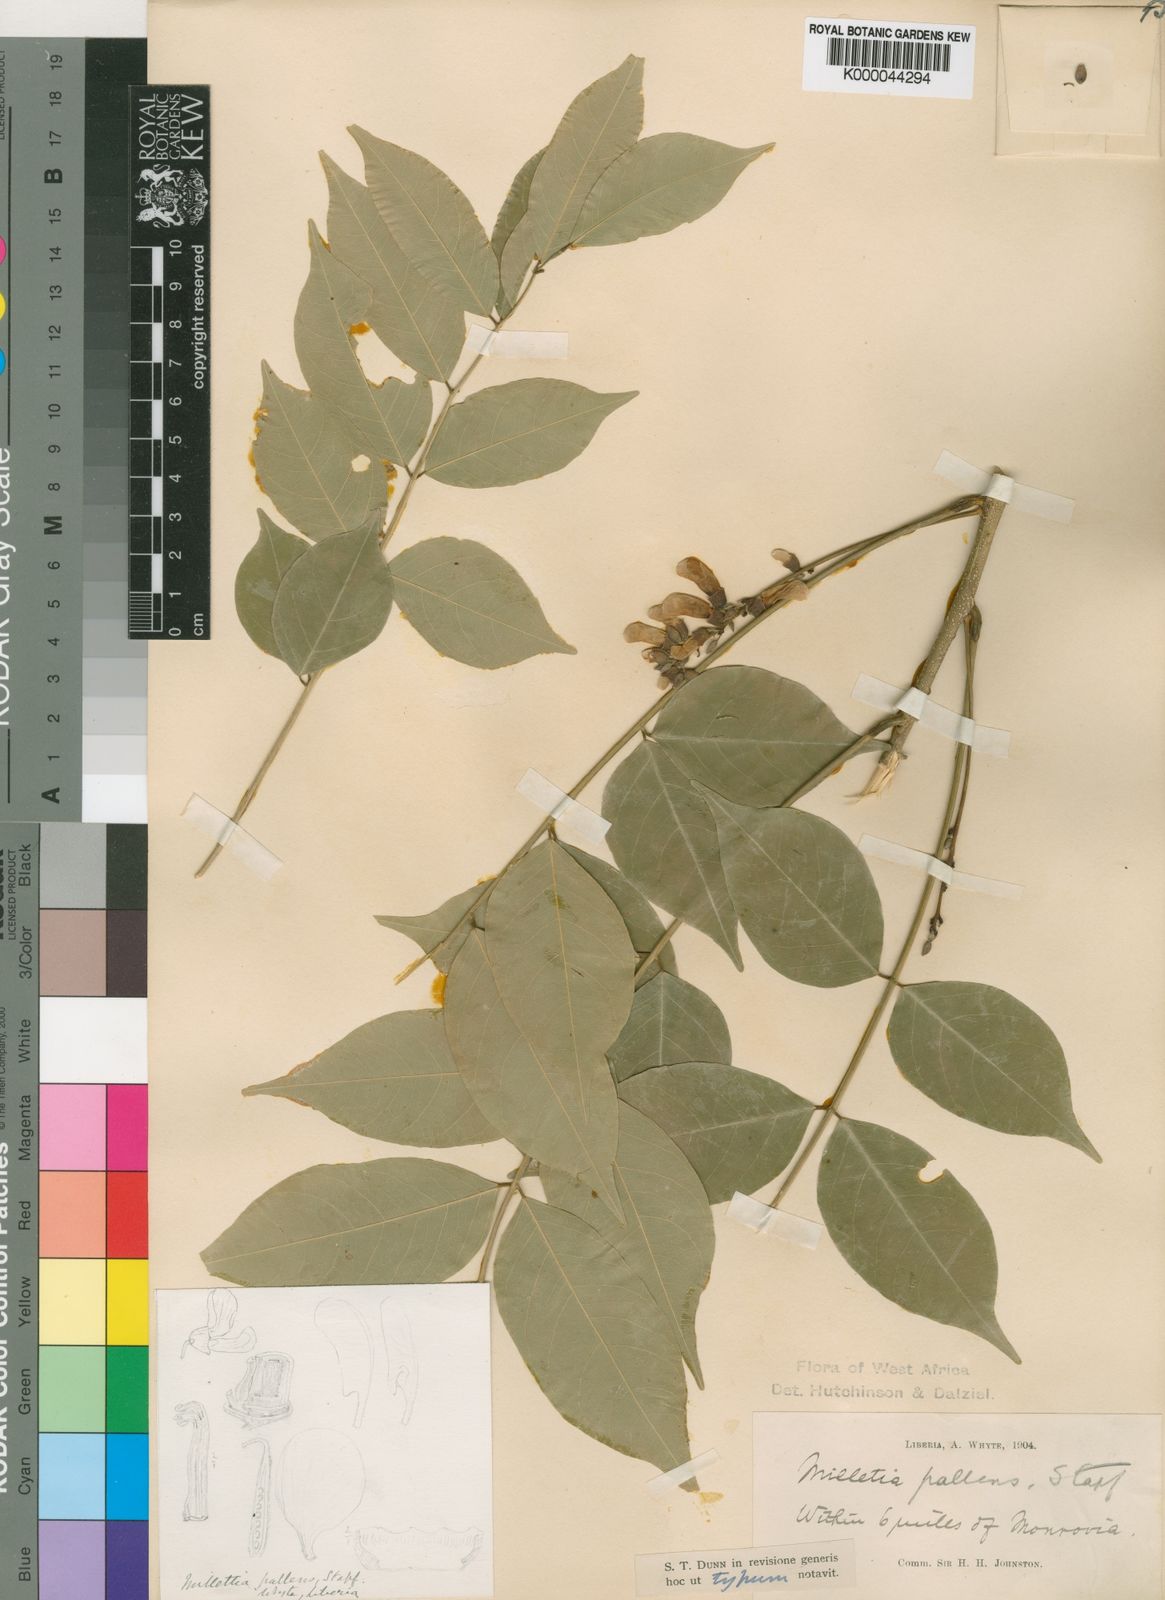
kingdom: Plantae
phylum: Tracheophyta
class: Magnoliopsida
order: Fabales
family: Fabaceae
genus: Millettia
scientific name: Millettia pallens
